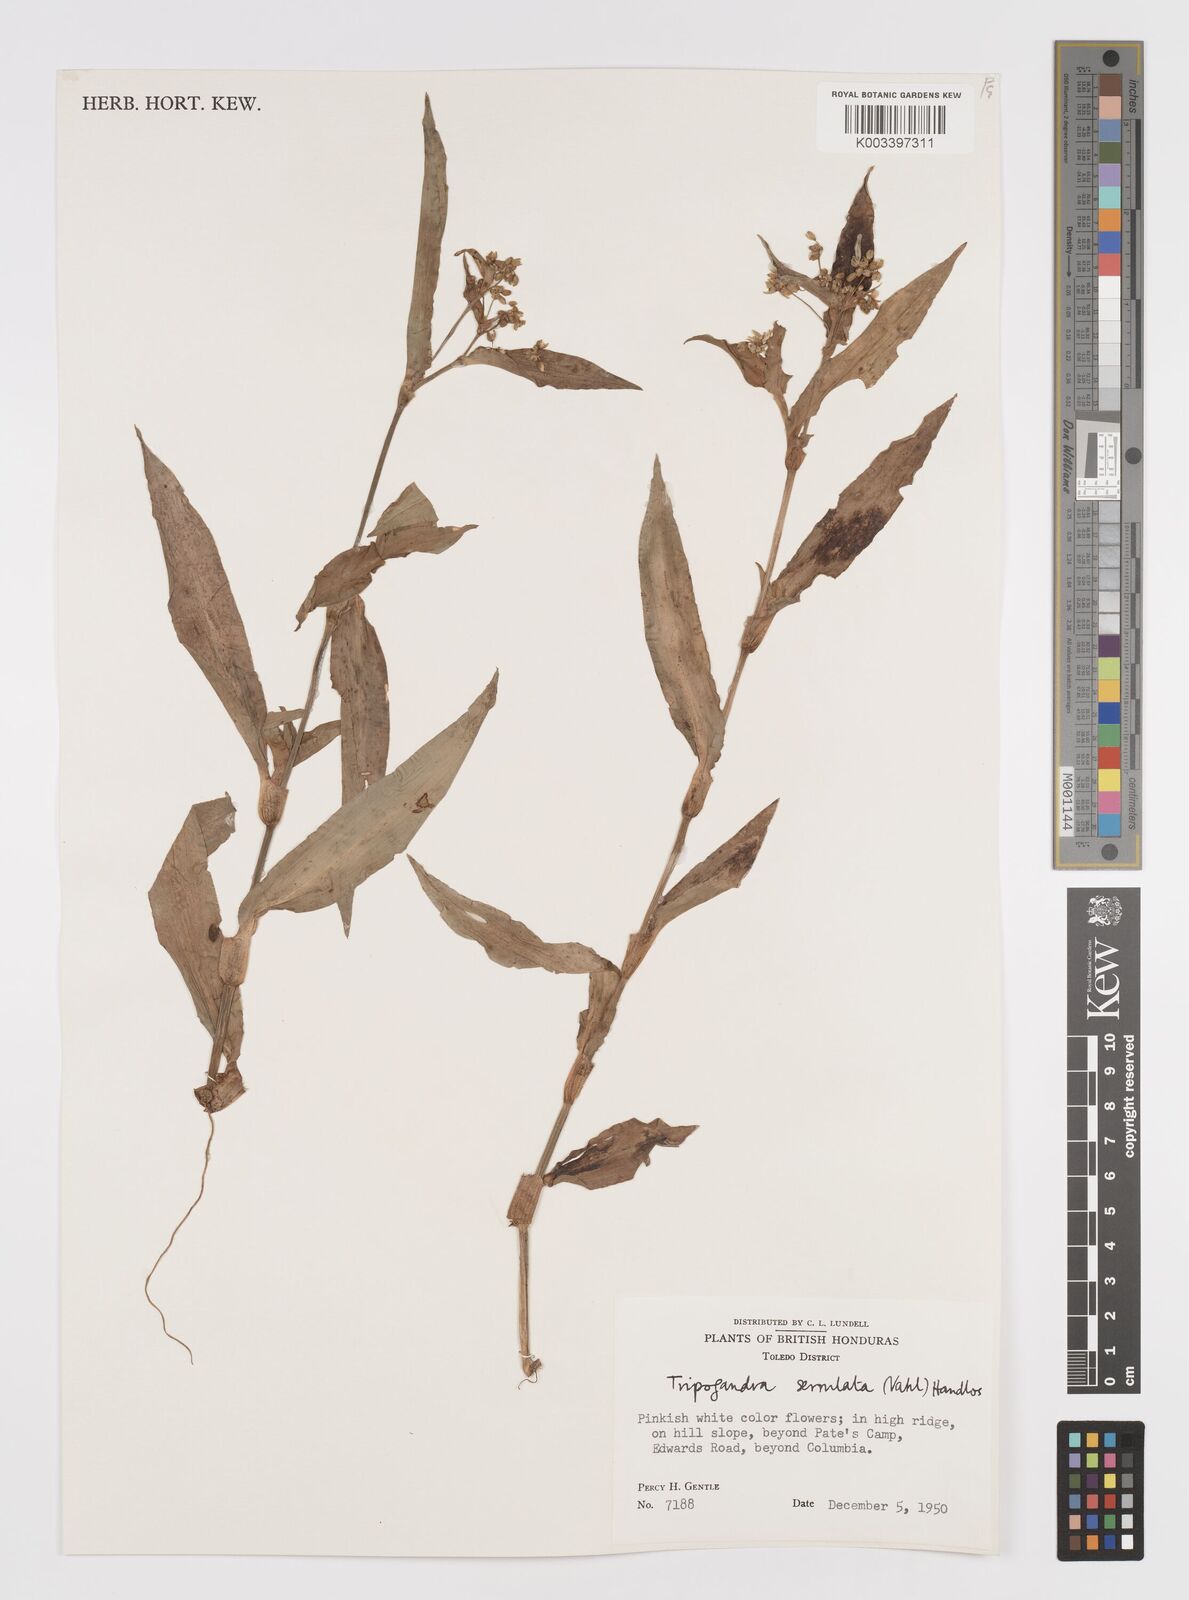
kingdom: Plantae
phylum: Tracheophyta
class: Liliopsida
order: Commelinales
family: Commelinaceae
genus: Callisia
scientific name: Callisia serrulata
